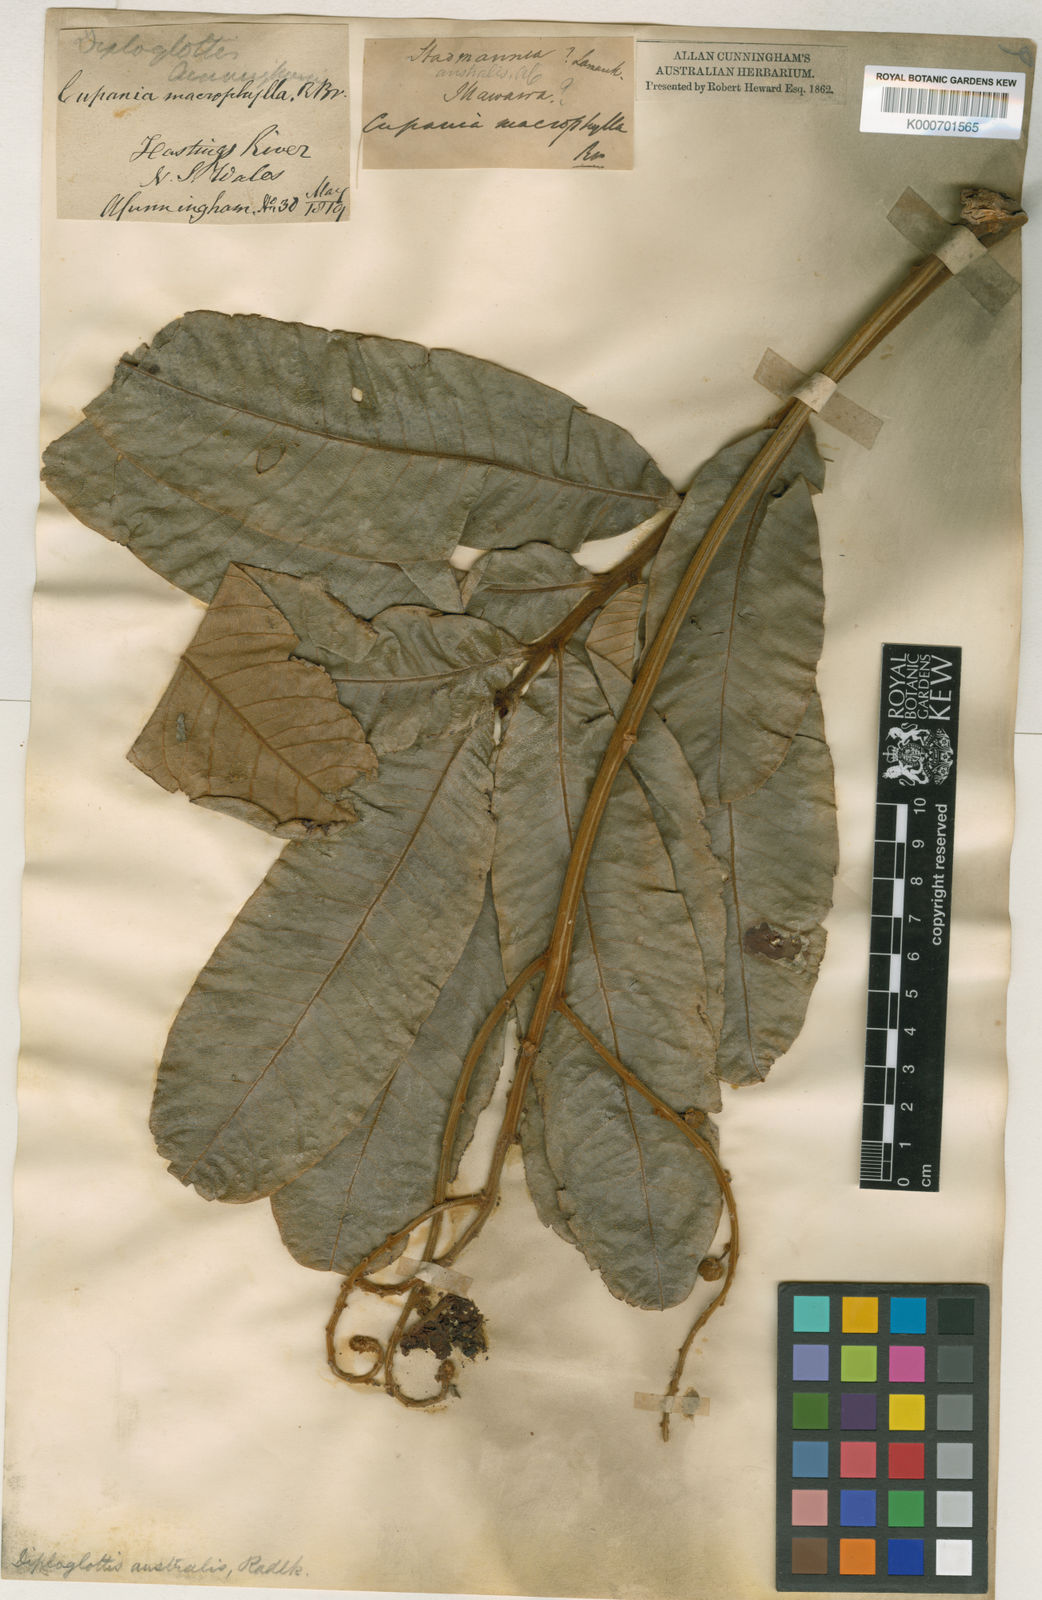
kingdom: Plantae
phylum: Tracheophyta
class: Magnoliopsida
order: Sapindales
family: Sapindaceae
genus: Diploglottis
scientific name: Diploglottis australis
